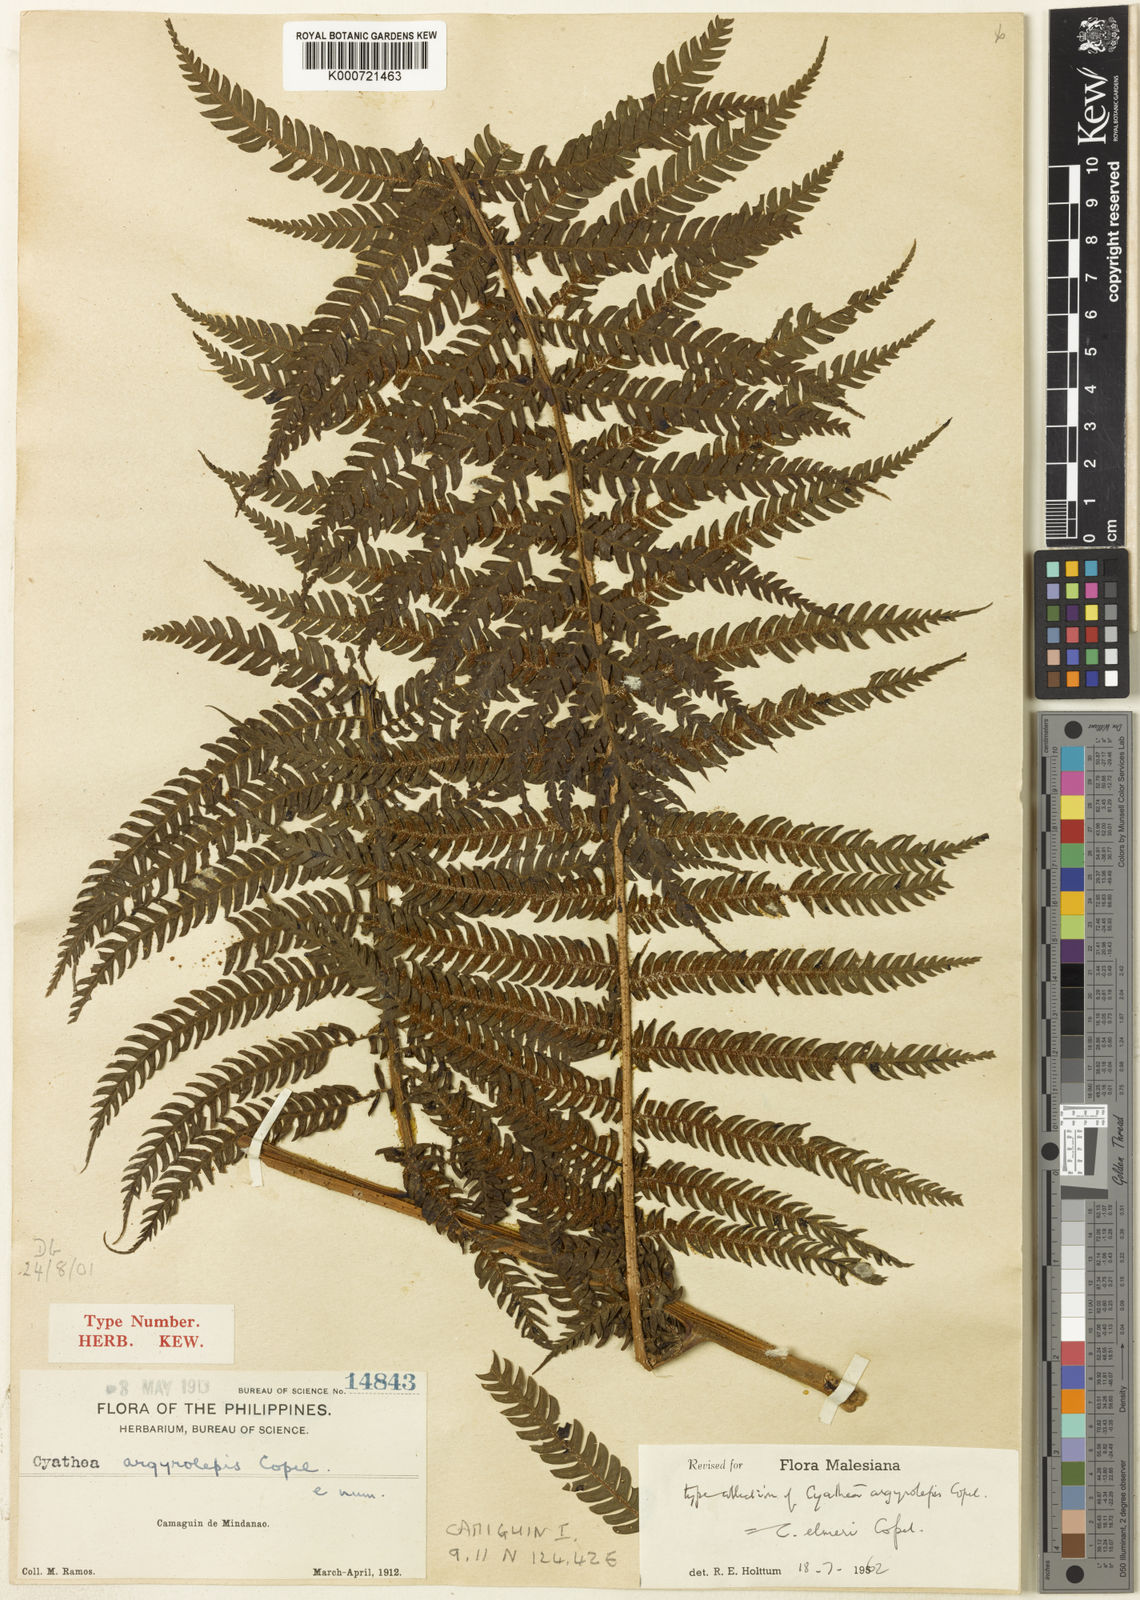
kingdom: Plantae
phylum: Tracheophyta
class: Polypodiopsida
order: Cyatheales
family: Cyatheaceae
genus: Sphaeropteris
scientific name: Sphaeropteris elmeri
